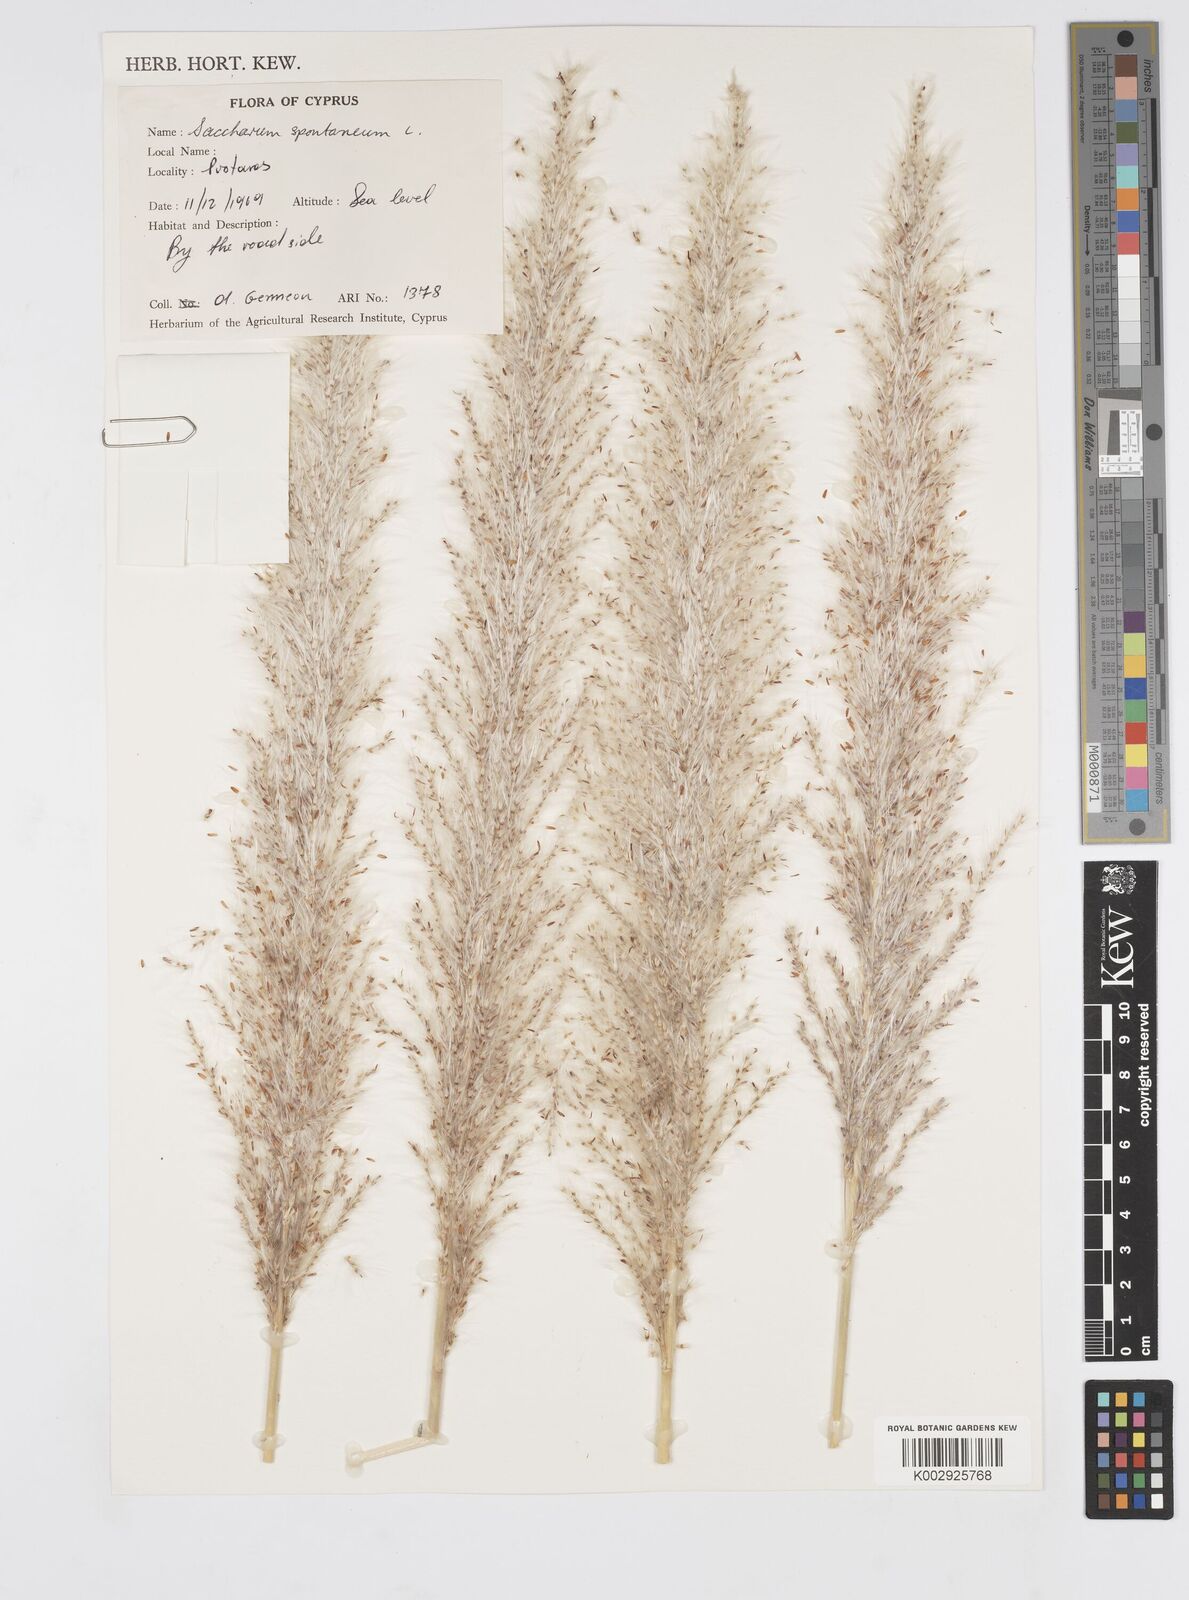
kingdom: Plantae
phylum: Tracheophyta
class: Liliopsida
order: Poales
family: Poaceae
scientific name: Poaceae
